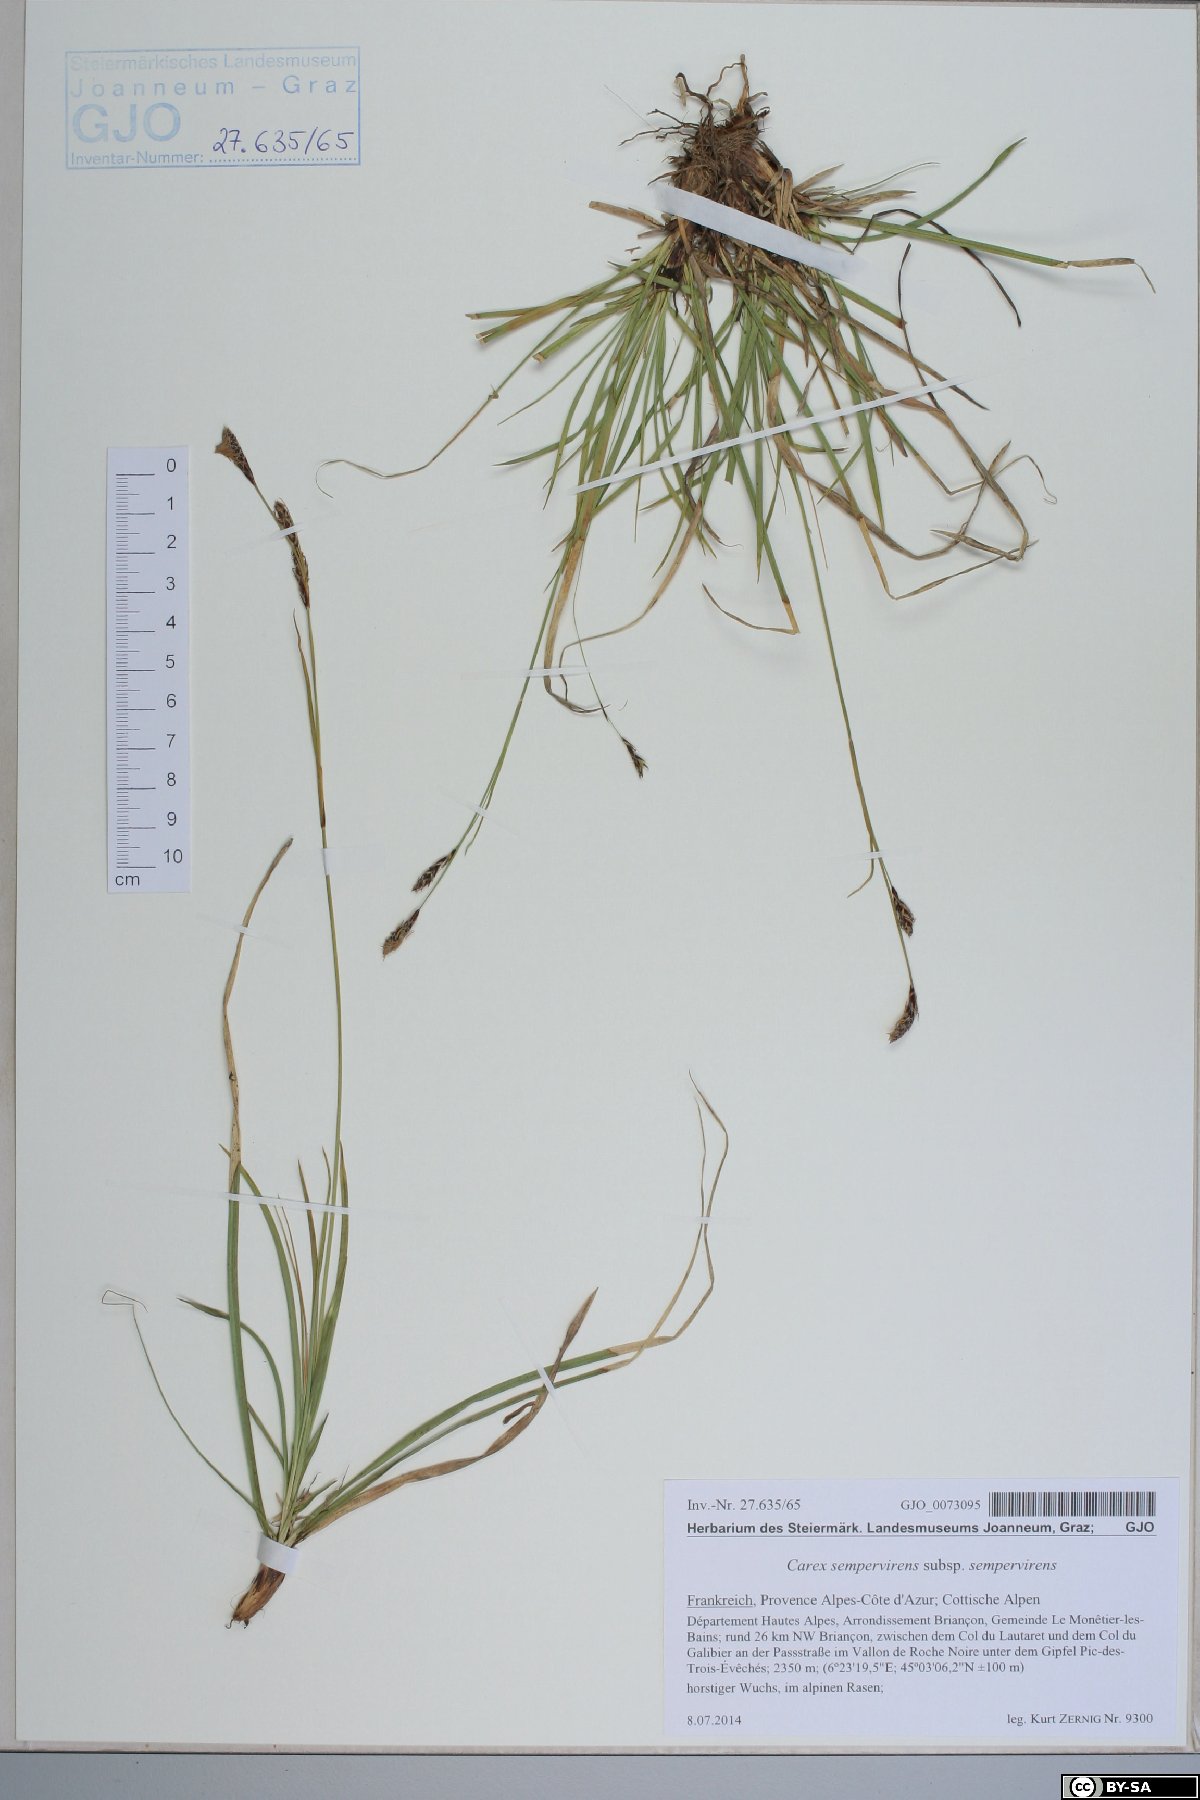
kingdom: Plantae
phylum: Tracheophyta
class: Liliopsida
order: Poales
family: Cyperaceae
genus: Carex
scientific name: Carex sempervirens
